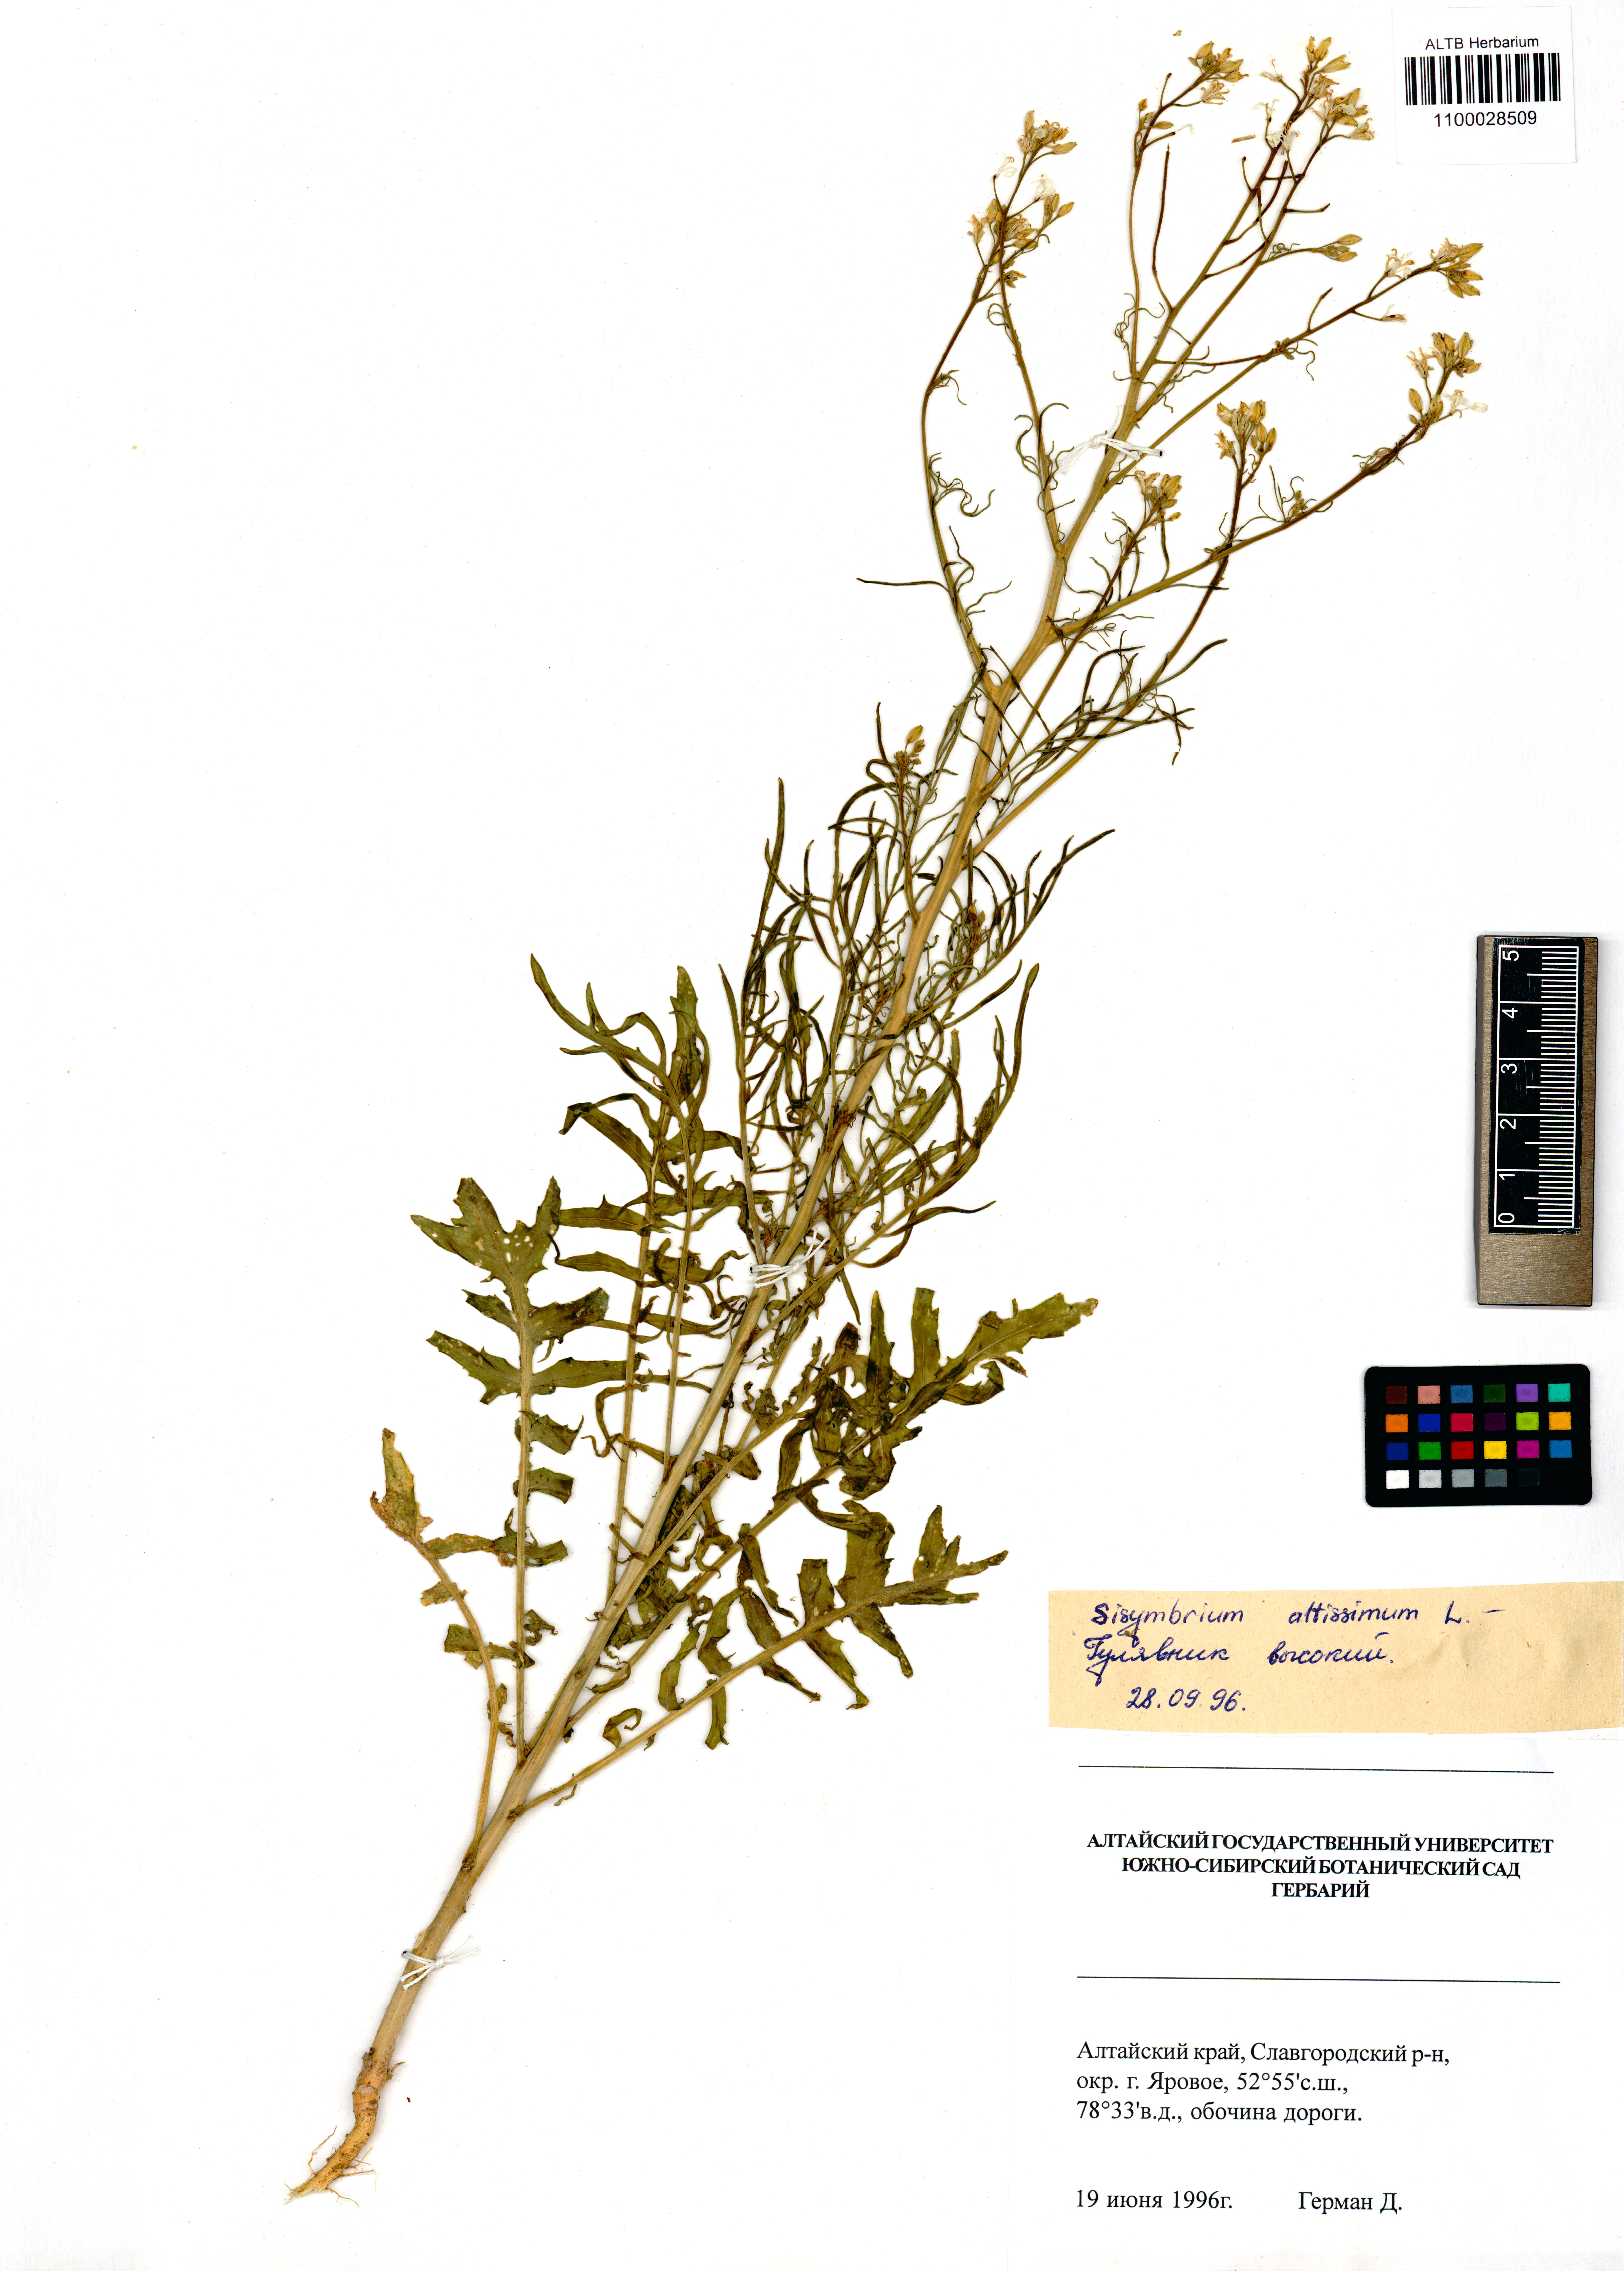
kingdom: Plantae
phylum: Tracheophyta
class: Magnoliopsida
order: Brassicales
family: Brassicaceae
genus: Sisymbrium
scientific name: Sisymbrium altissimum
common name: Tall rocket
